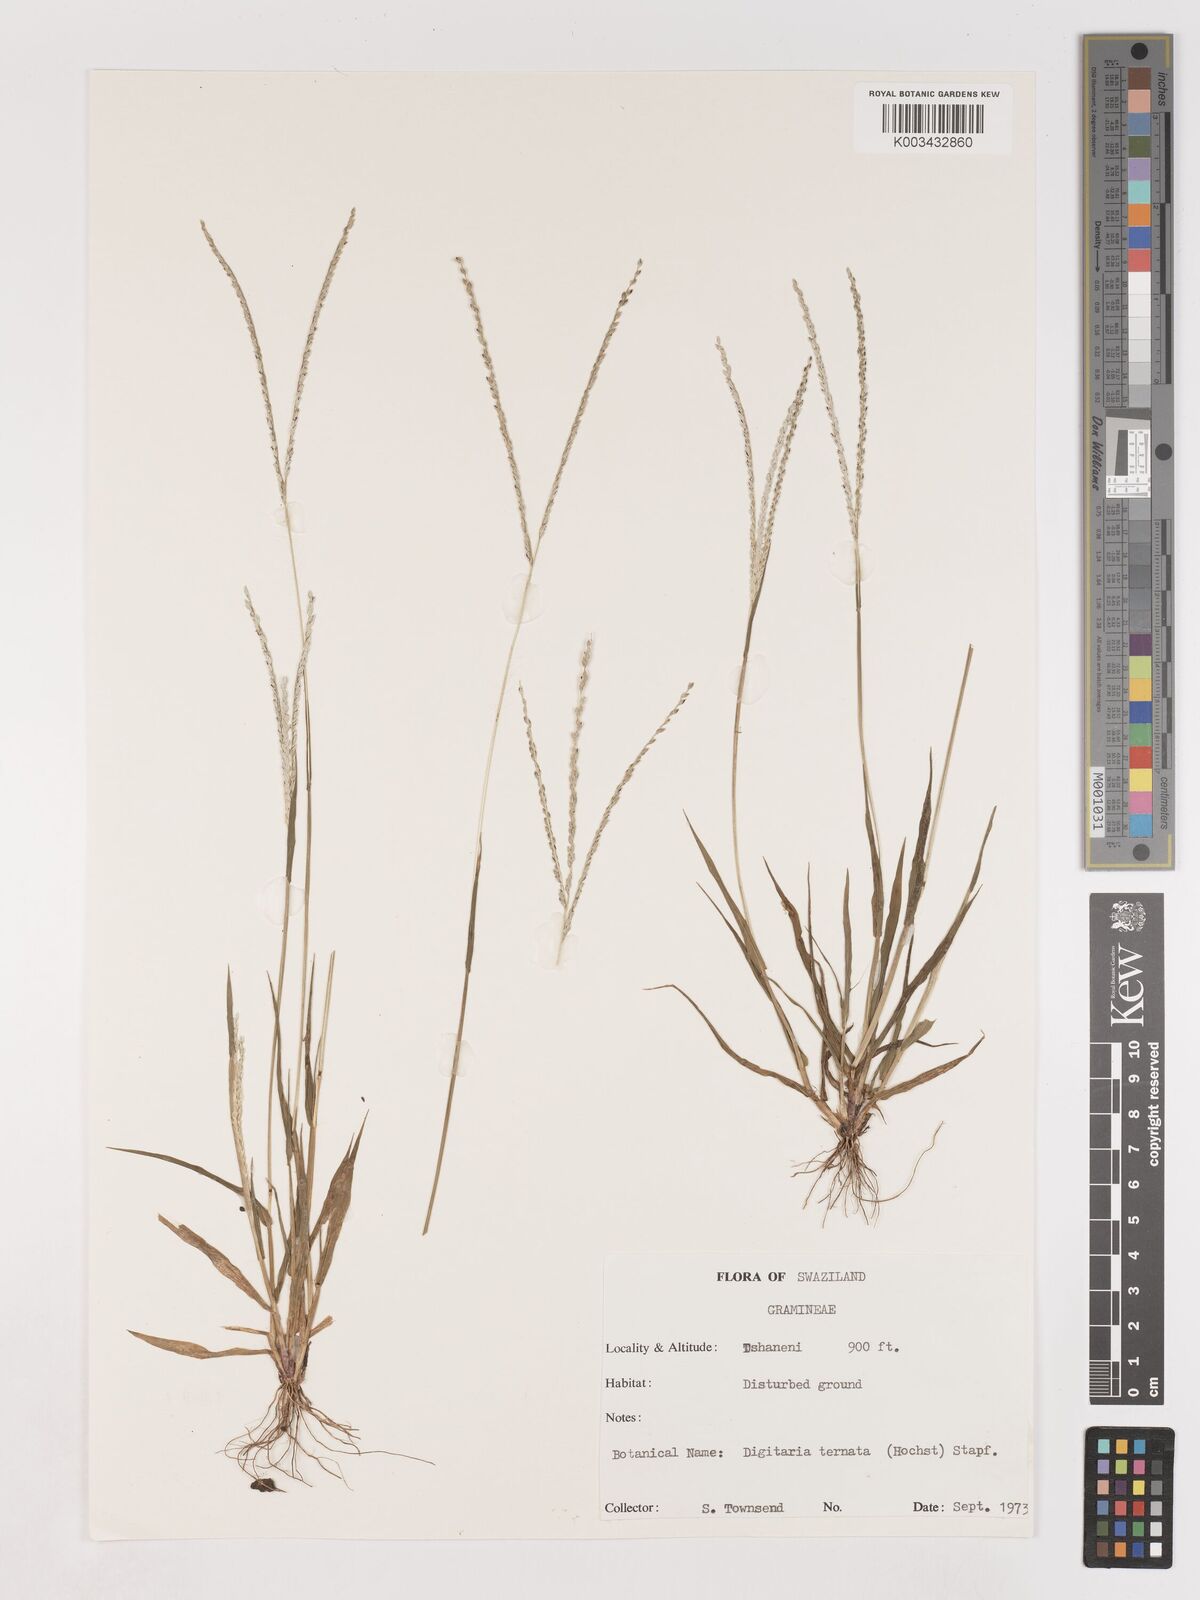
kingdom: Plantae
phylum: Tracheophyta
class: Liliopsida
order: Poales
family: Poaceae
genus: Digitaria
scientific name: Digitaria ternata
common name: Blackseed crabgrass
